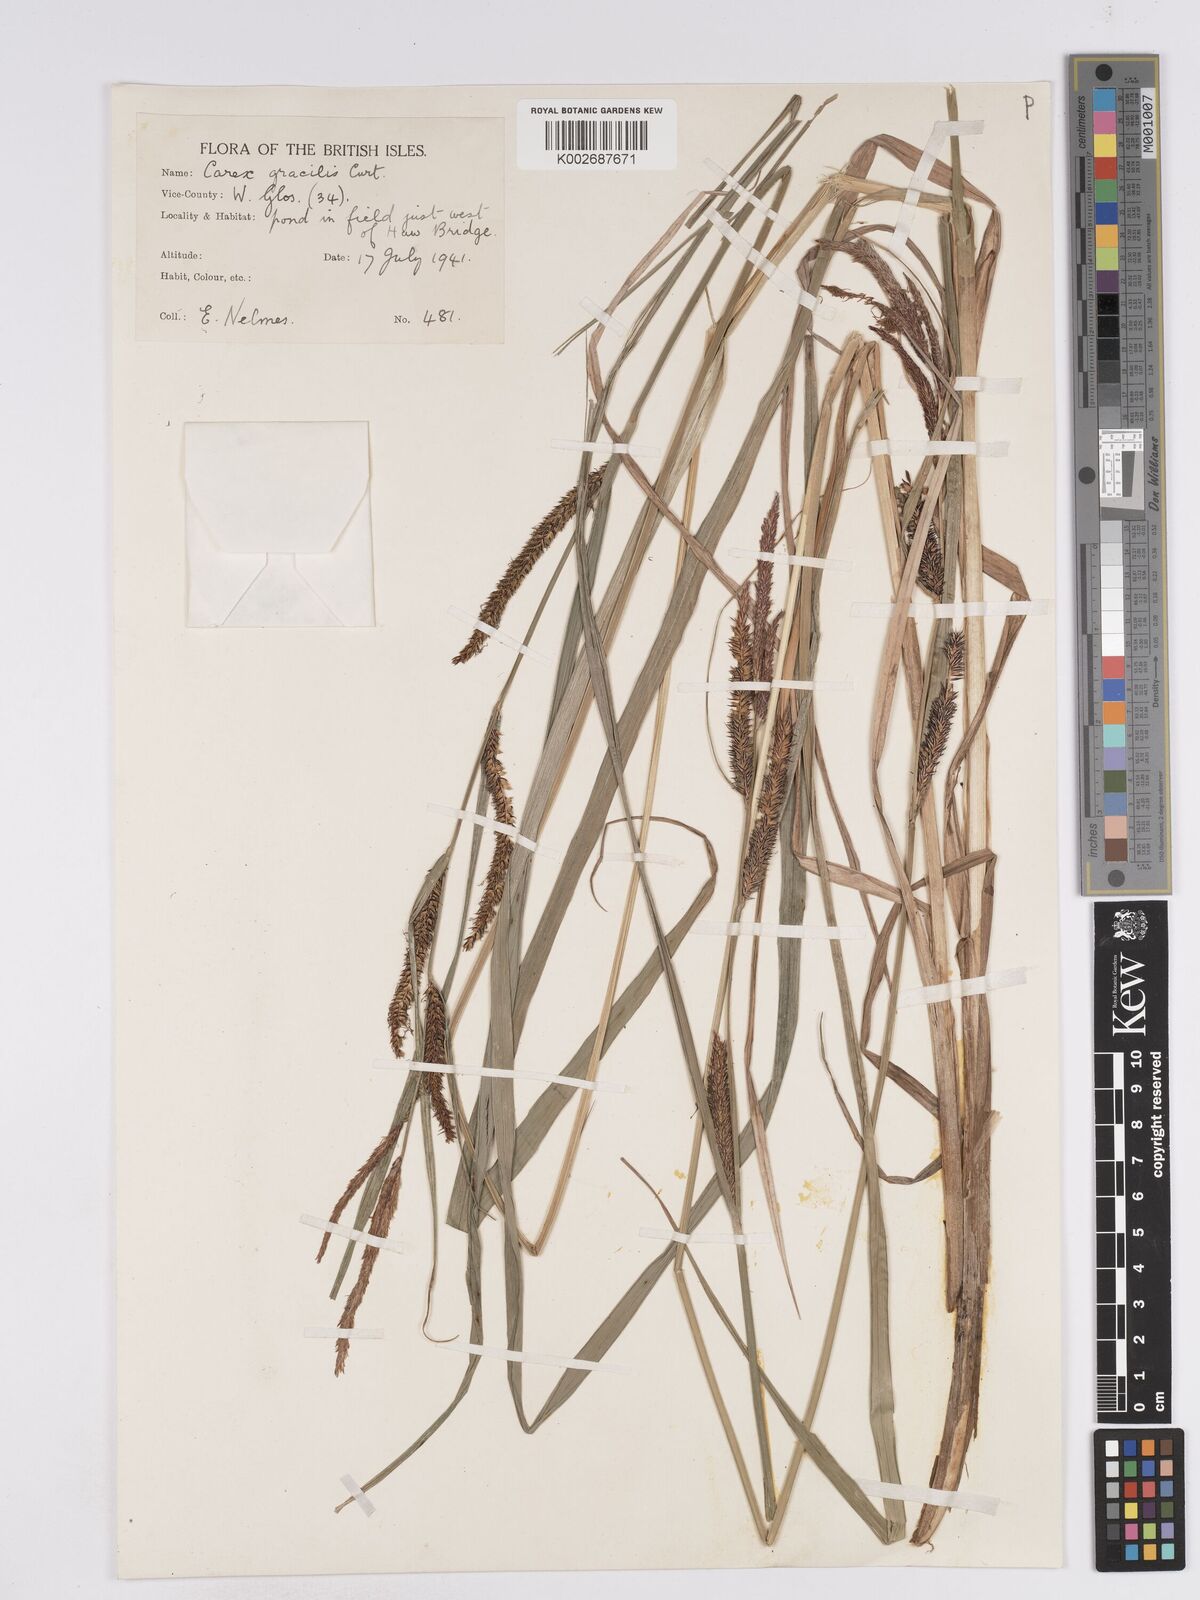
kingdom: Plantae
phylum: Tracheophyta
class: Liliopsida
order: Poales
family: Cyperaceae
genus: Carex
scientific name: Carex acuta
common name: Slender tufted-sedge
